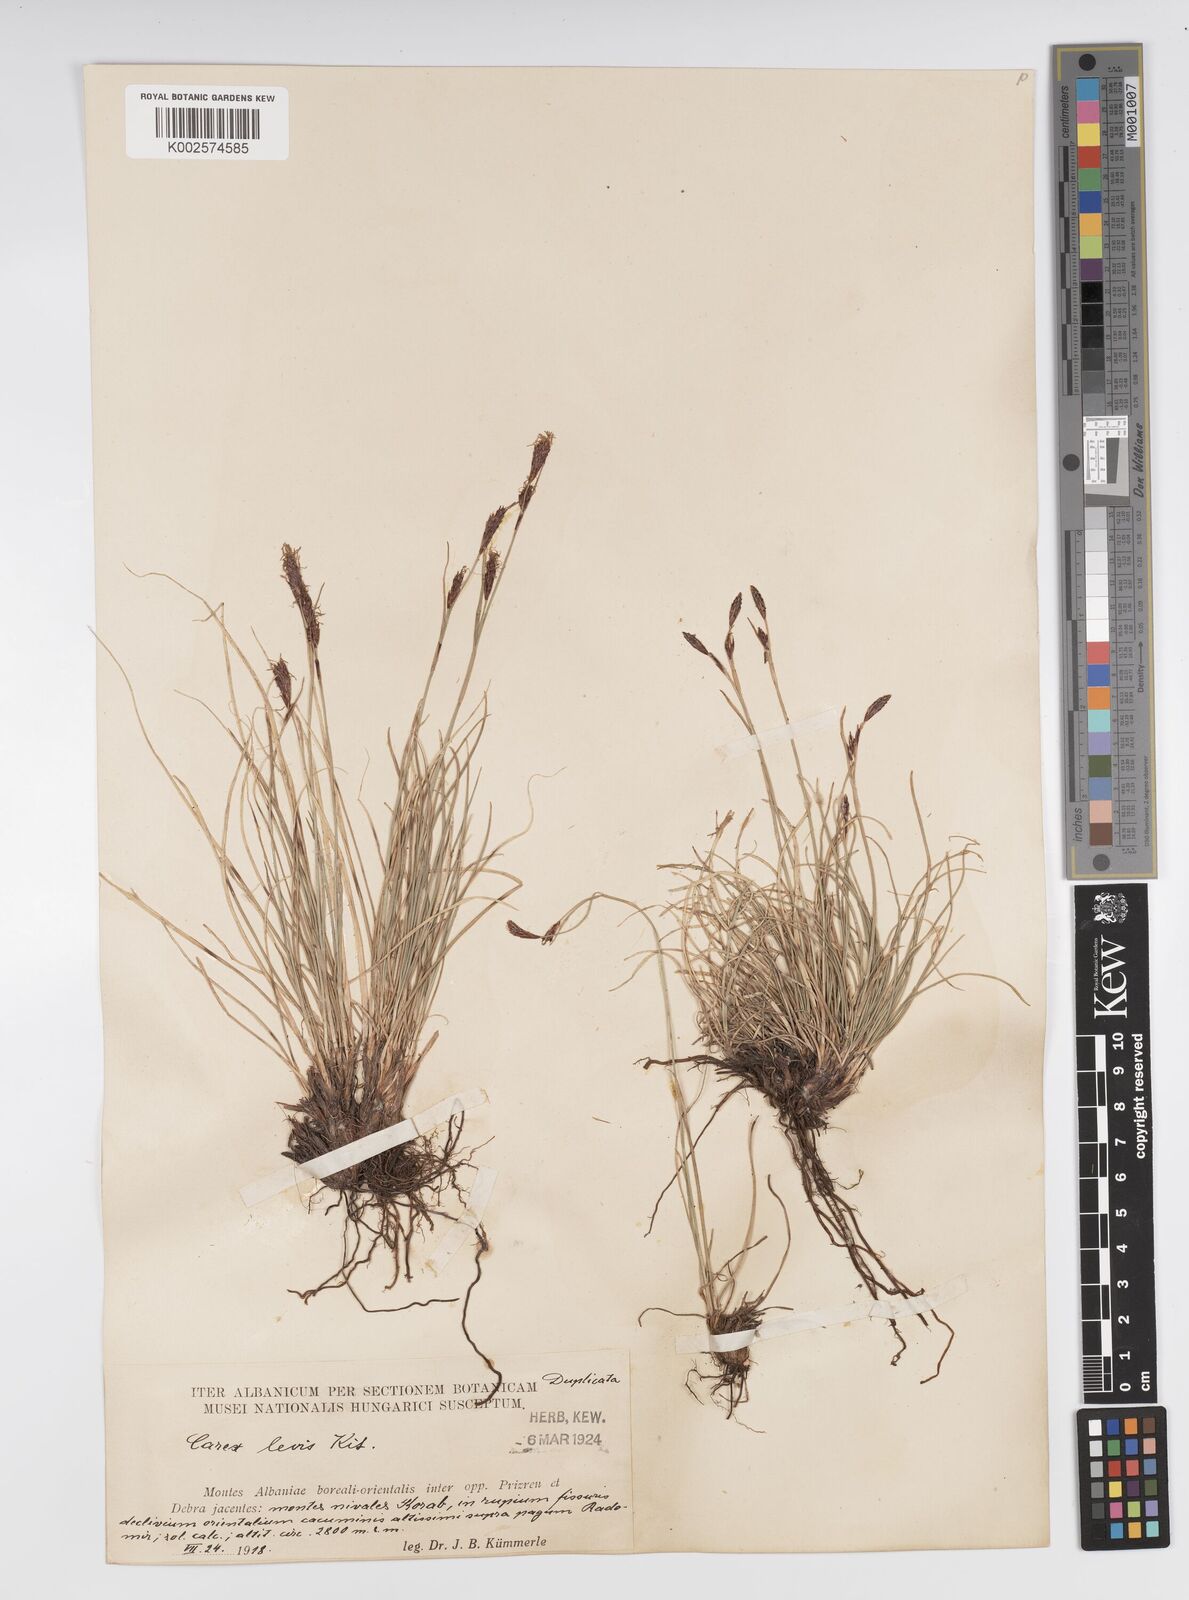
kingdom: Plantae
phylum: Tracheophyta
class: Liliopsida
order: Poales
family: Cyperaceae
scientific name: Cyperaceae
